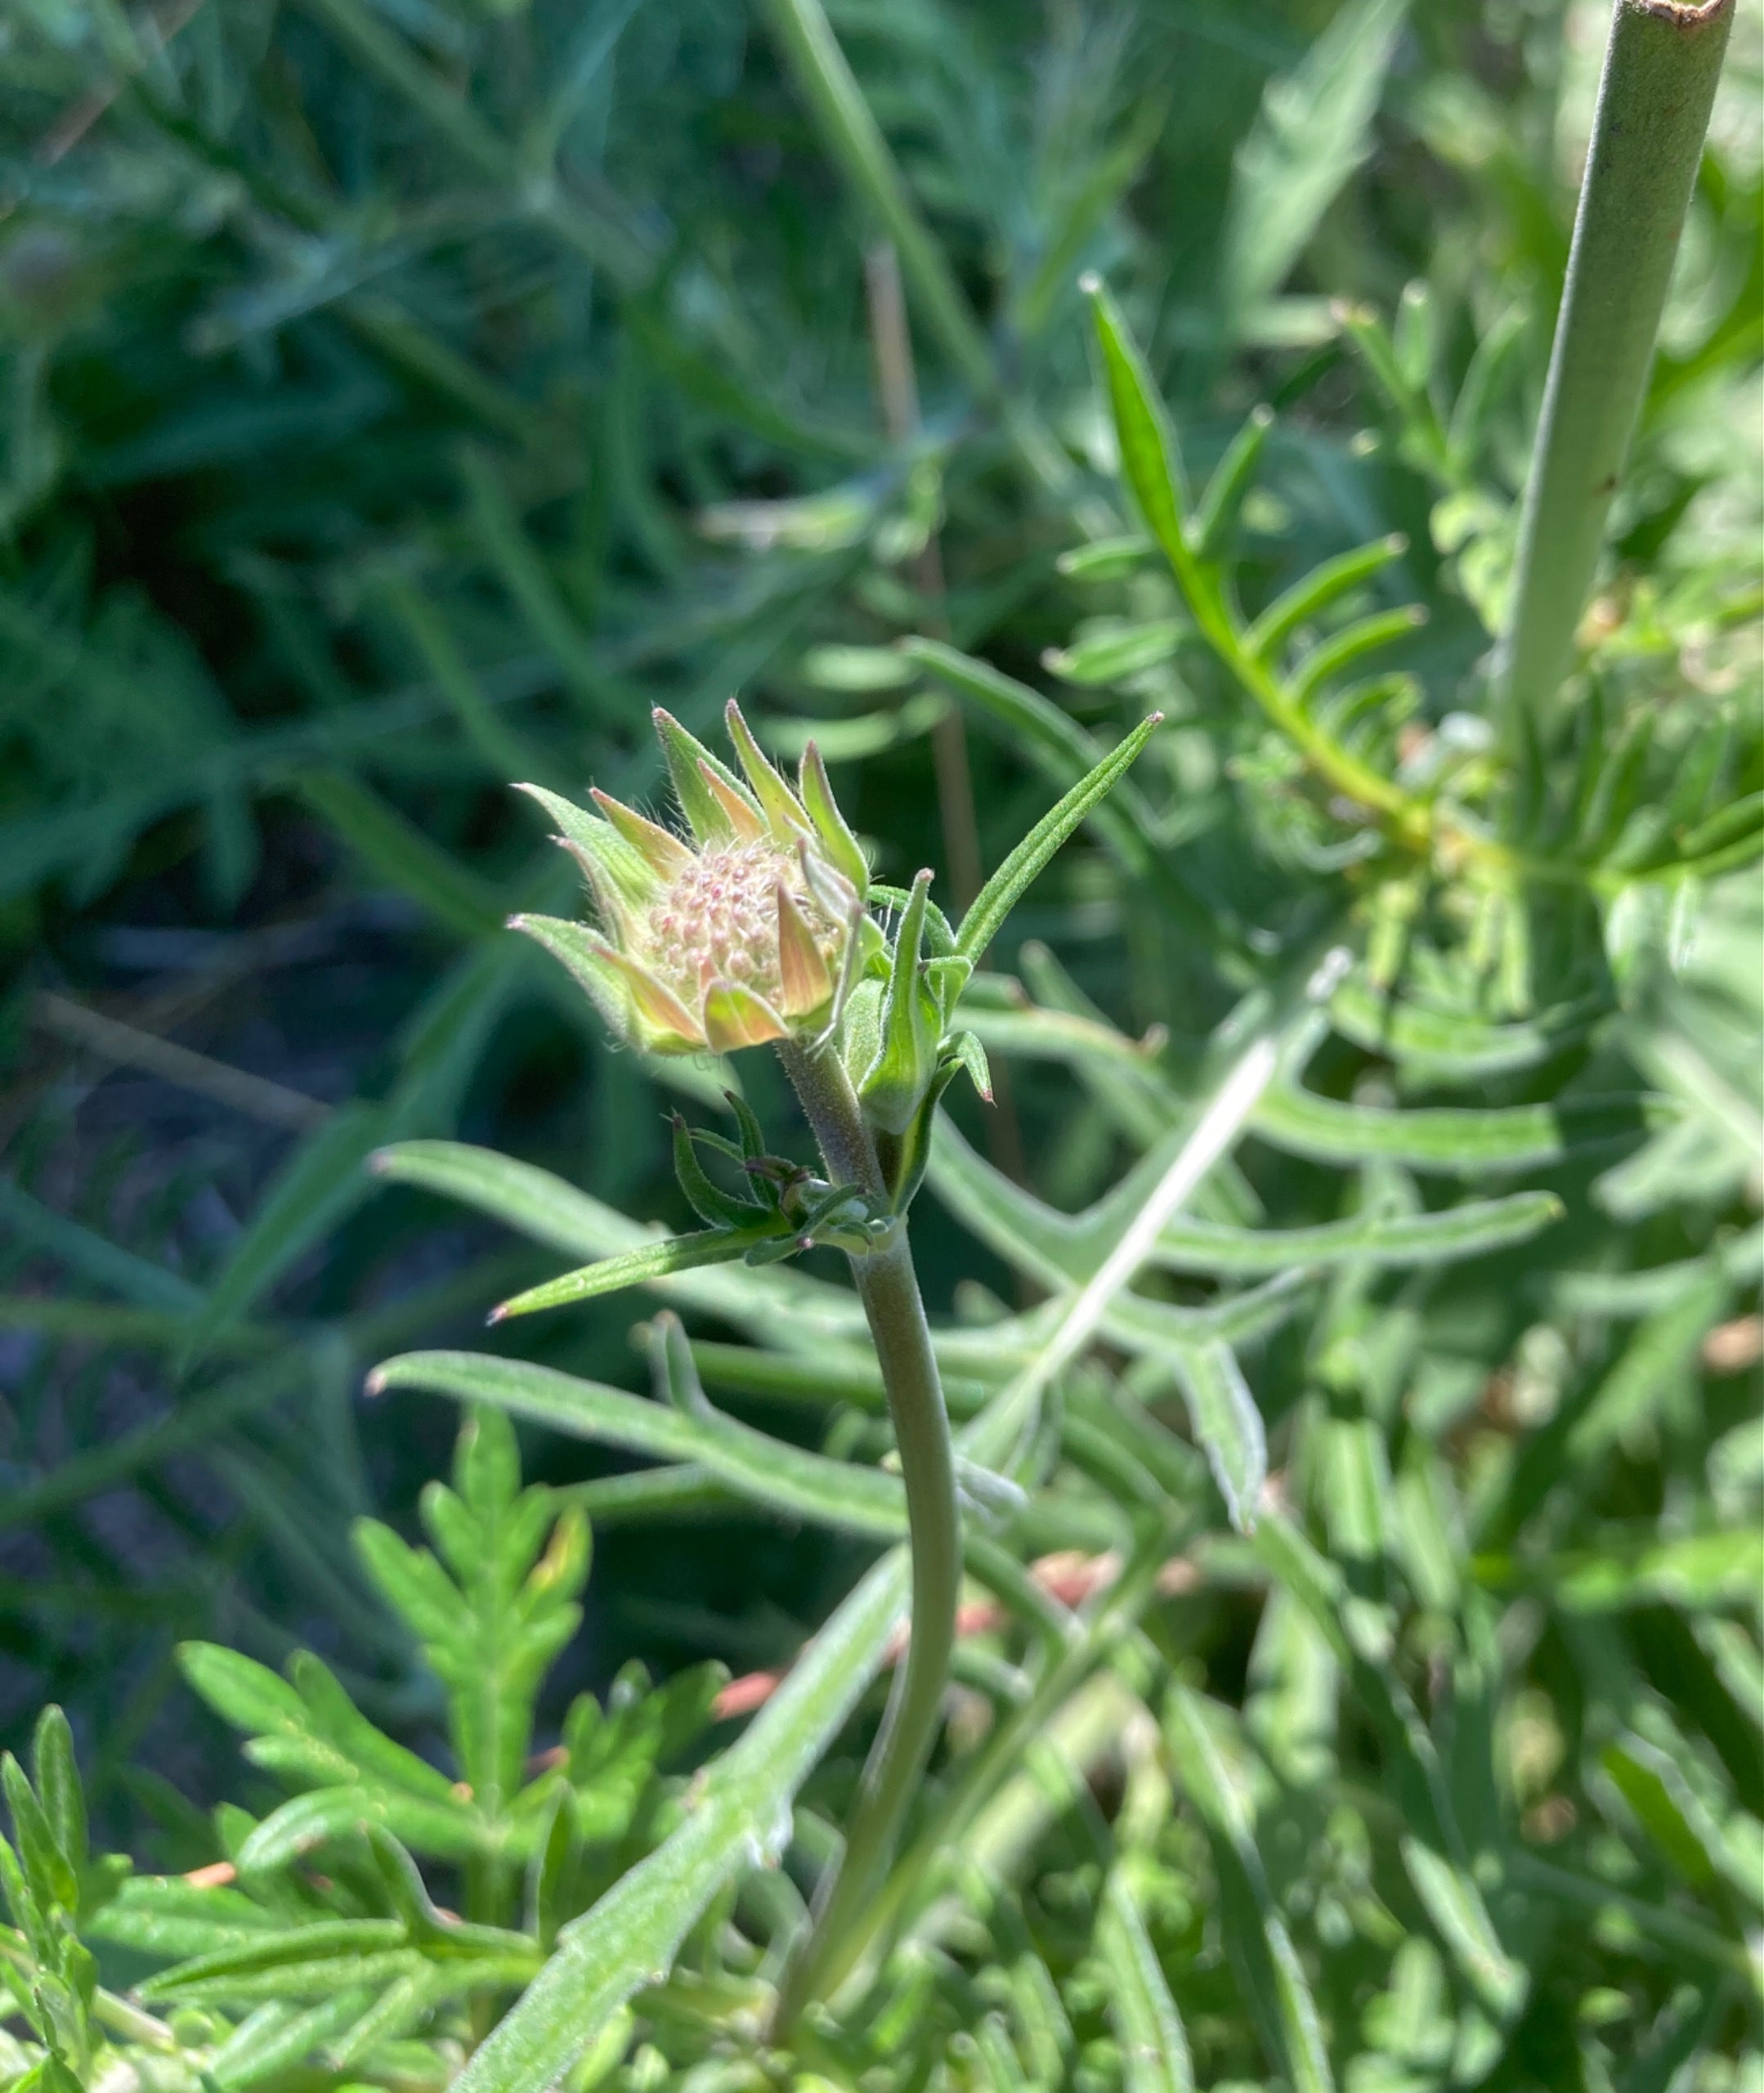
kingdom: Plantae
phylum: Tracheophyta
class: Magnoliopsida
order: Dipsacales
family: Caprifoliaceae
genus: Knautia
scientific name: Knautia arvensis
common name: Blåhat
